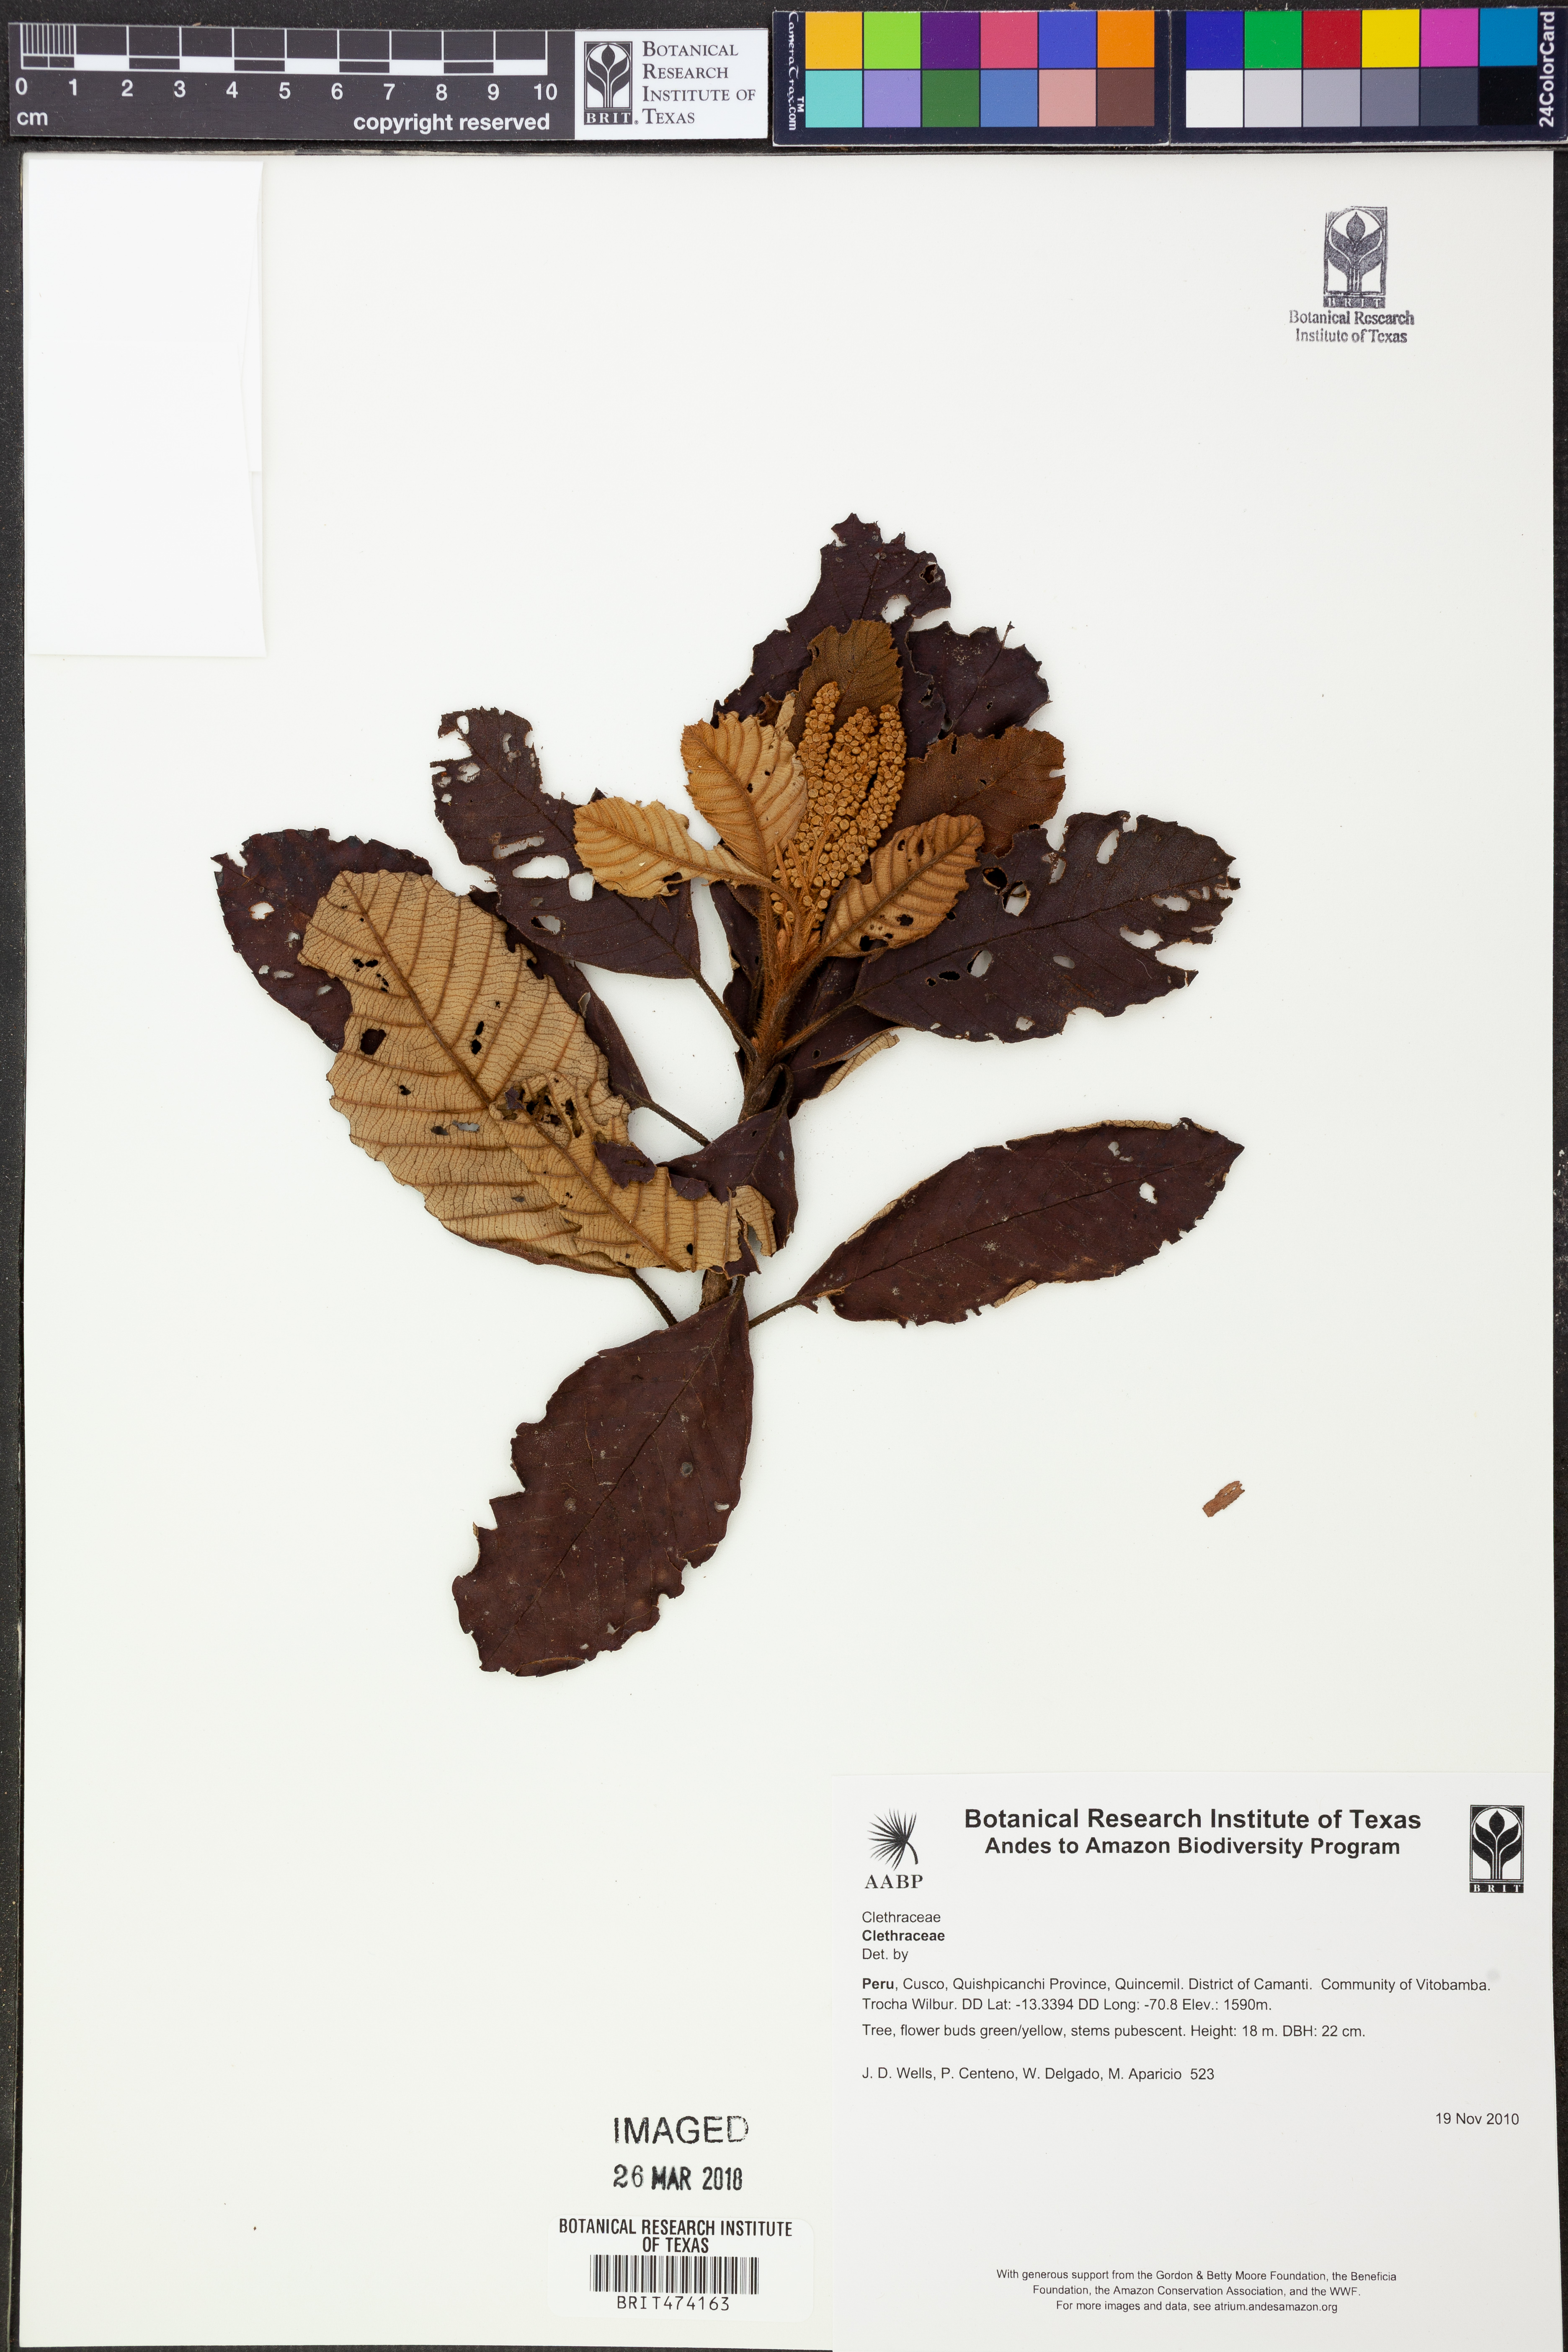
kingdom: Plantae
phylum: Tracheophyta
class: Magnoliopsida
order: Ericales
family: Clethraceae
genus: Clethra
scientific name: Clethra
